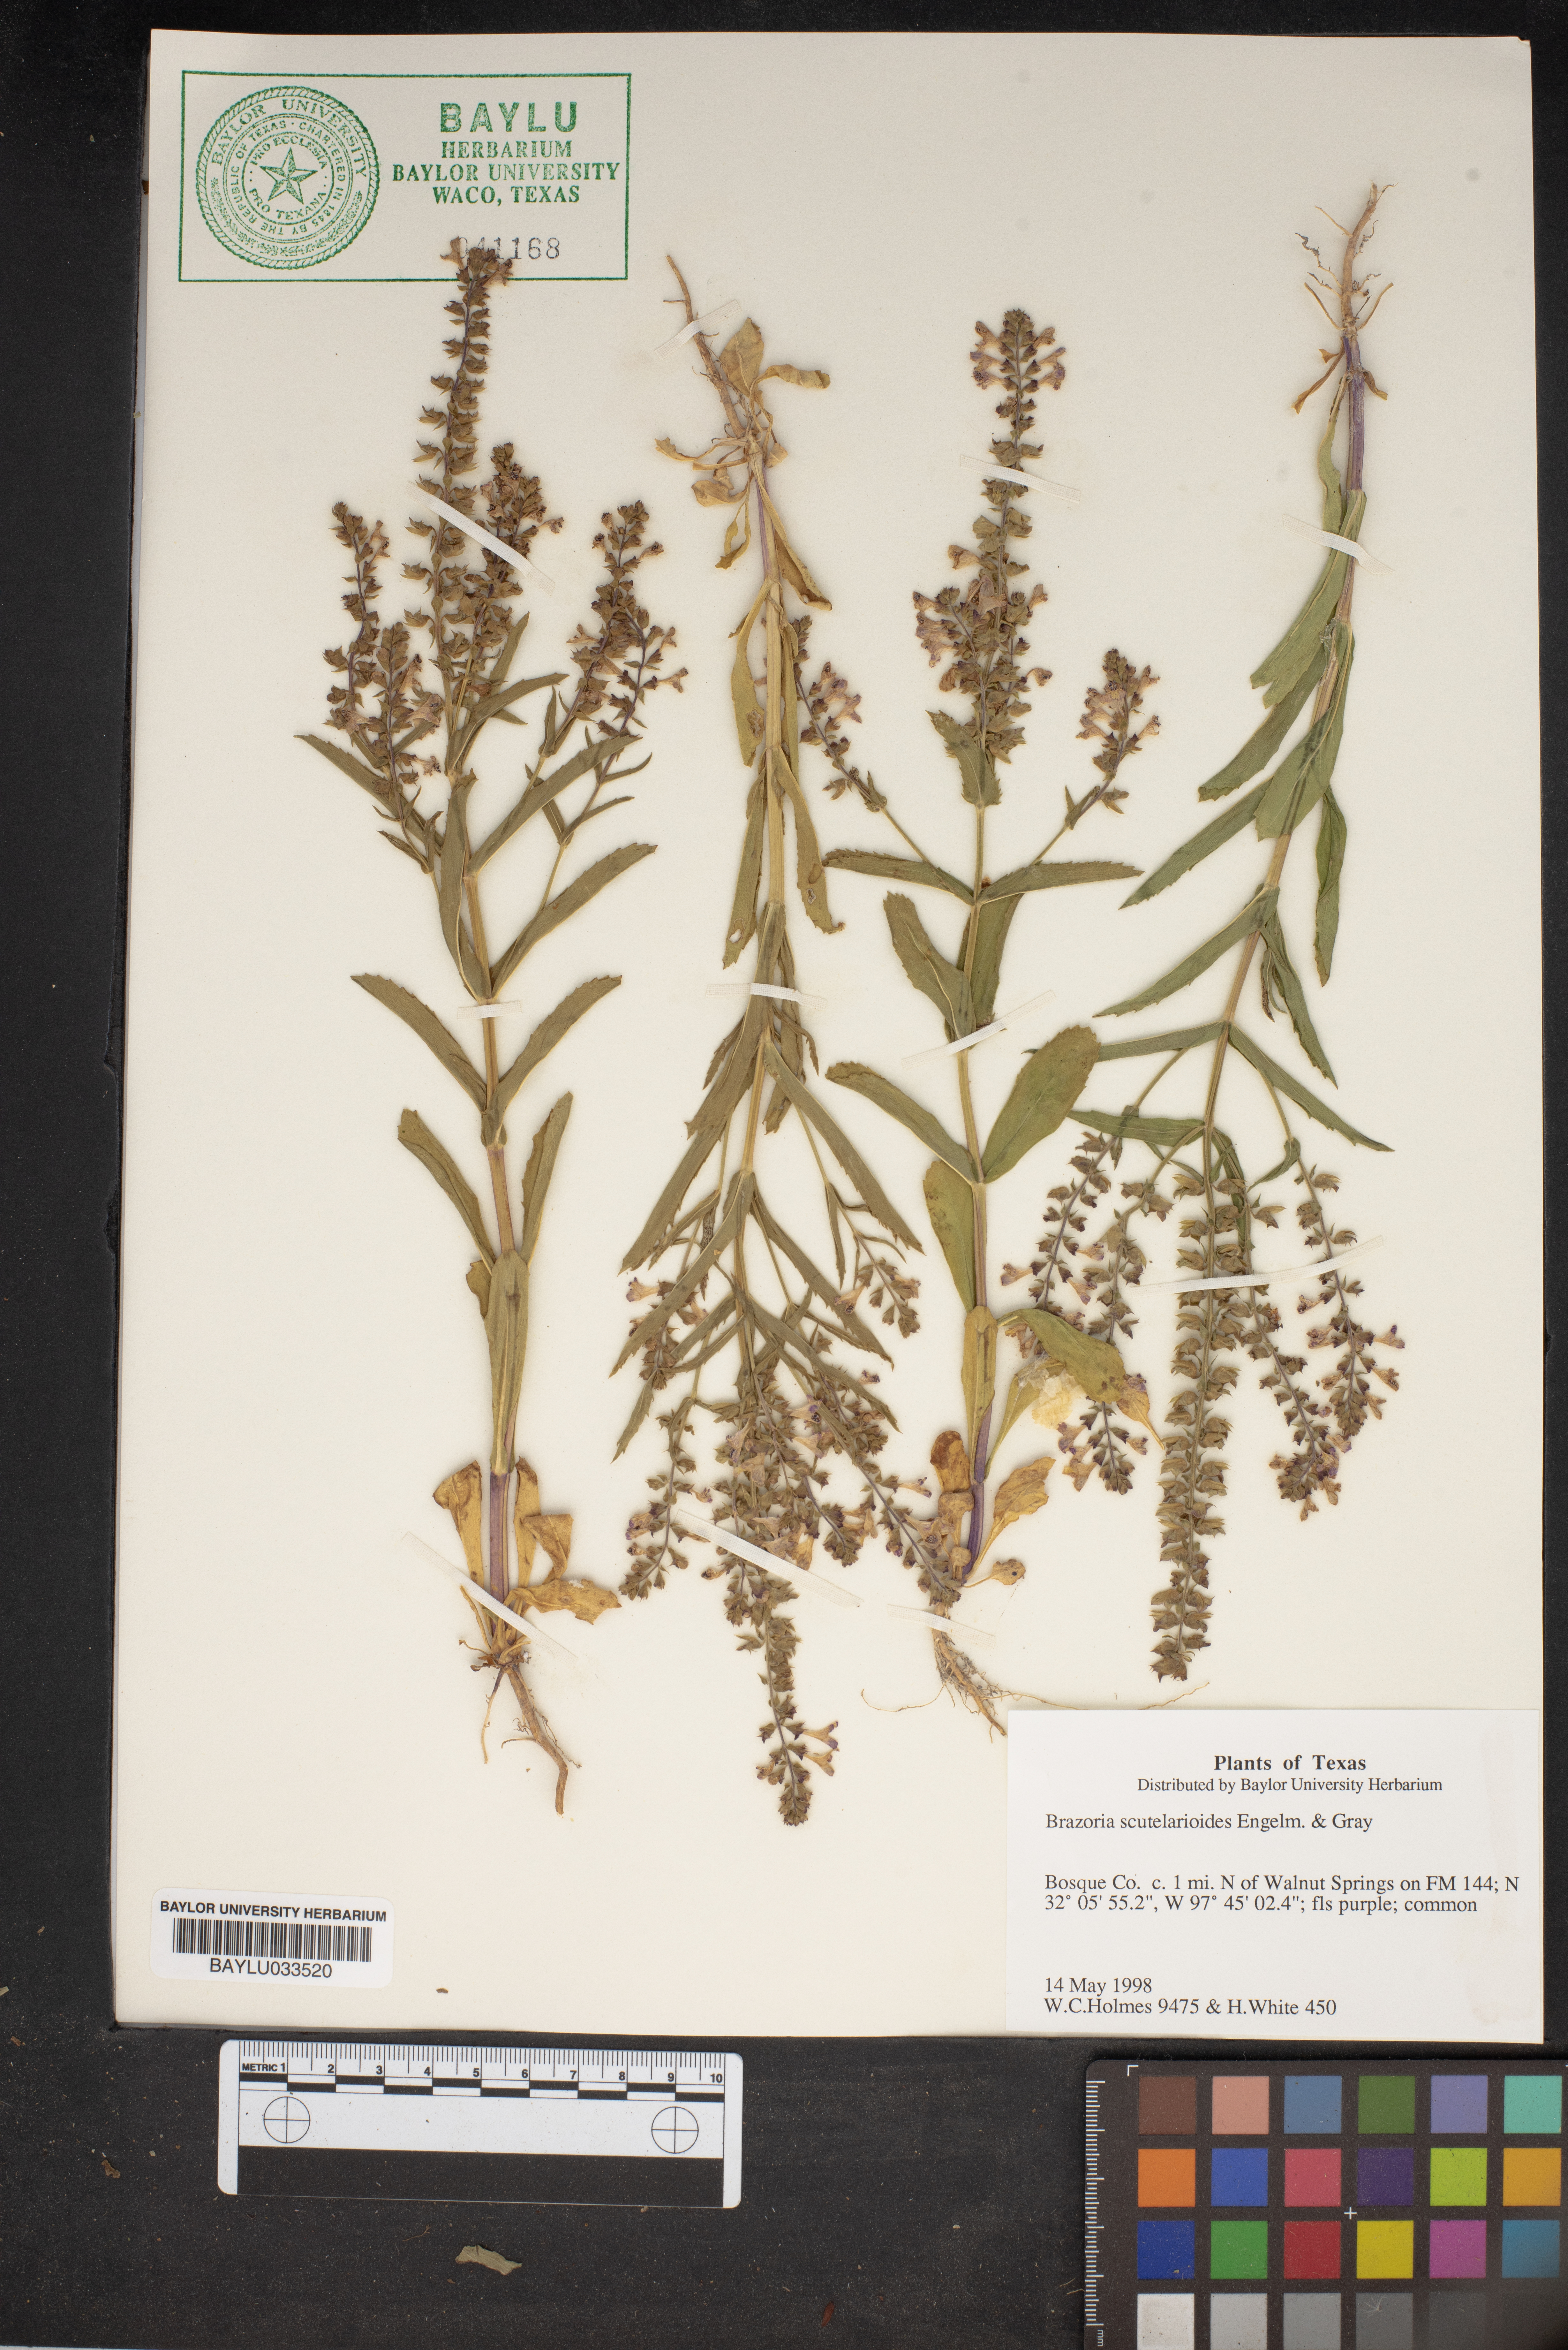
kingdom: Plantae
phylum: Tracheophyta
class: Magnoliopsida
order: Lamiales
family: Lamiaceae
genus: Warnockia
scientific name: Warnockia scutellarioides
